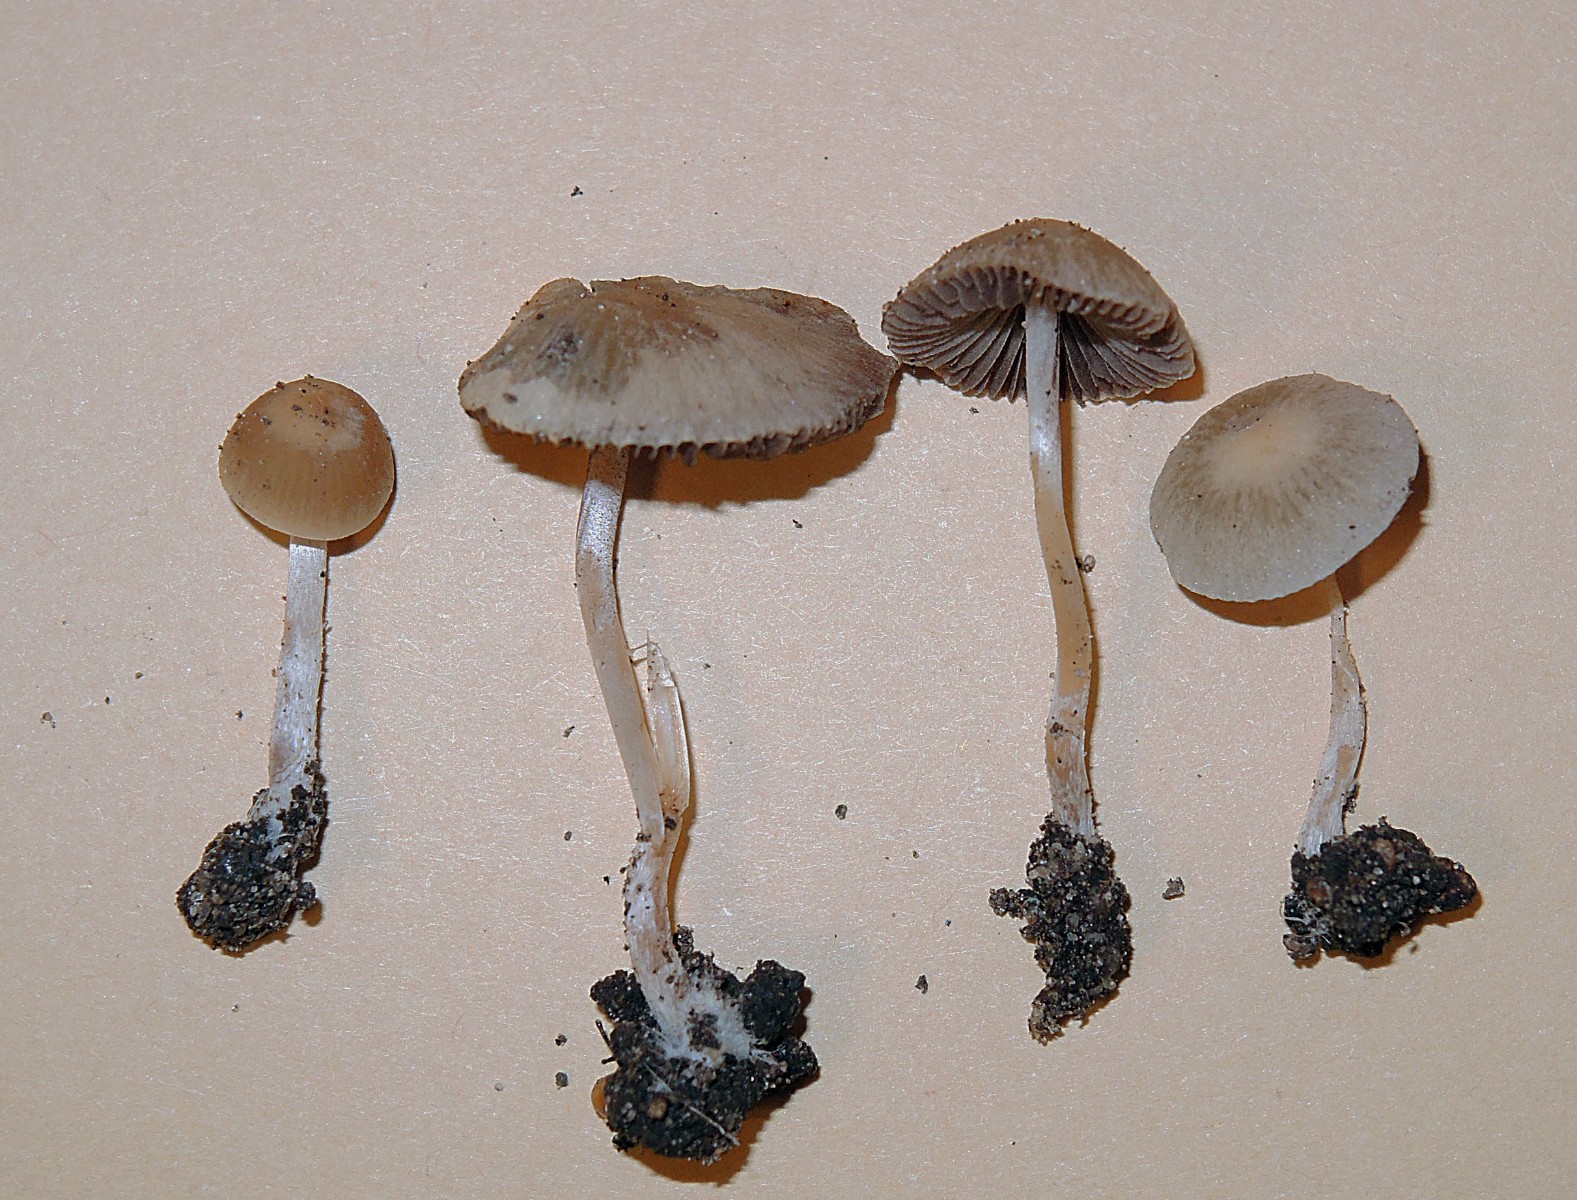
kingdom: Fungi
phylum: Basidiomycota
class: Agaricomycetes
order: Agaricales
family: Psathyrellaceae
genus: Britzelmayria
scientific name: Britzelmayria supernula
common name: stinkende mørkhat
